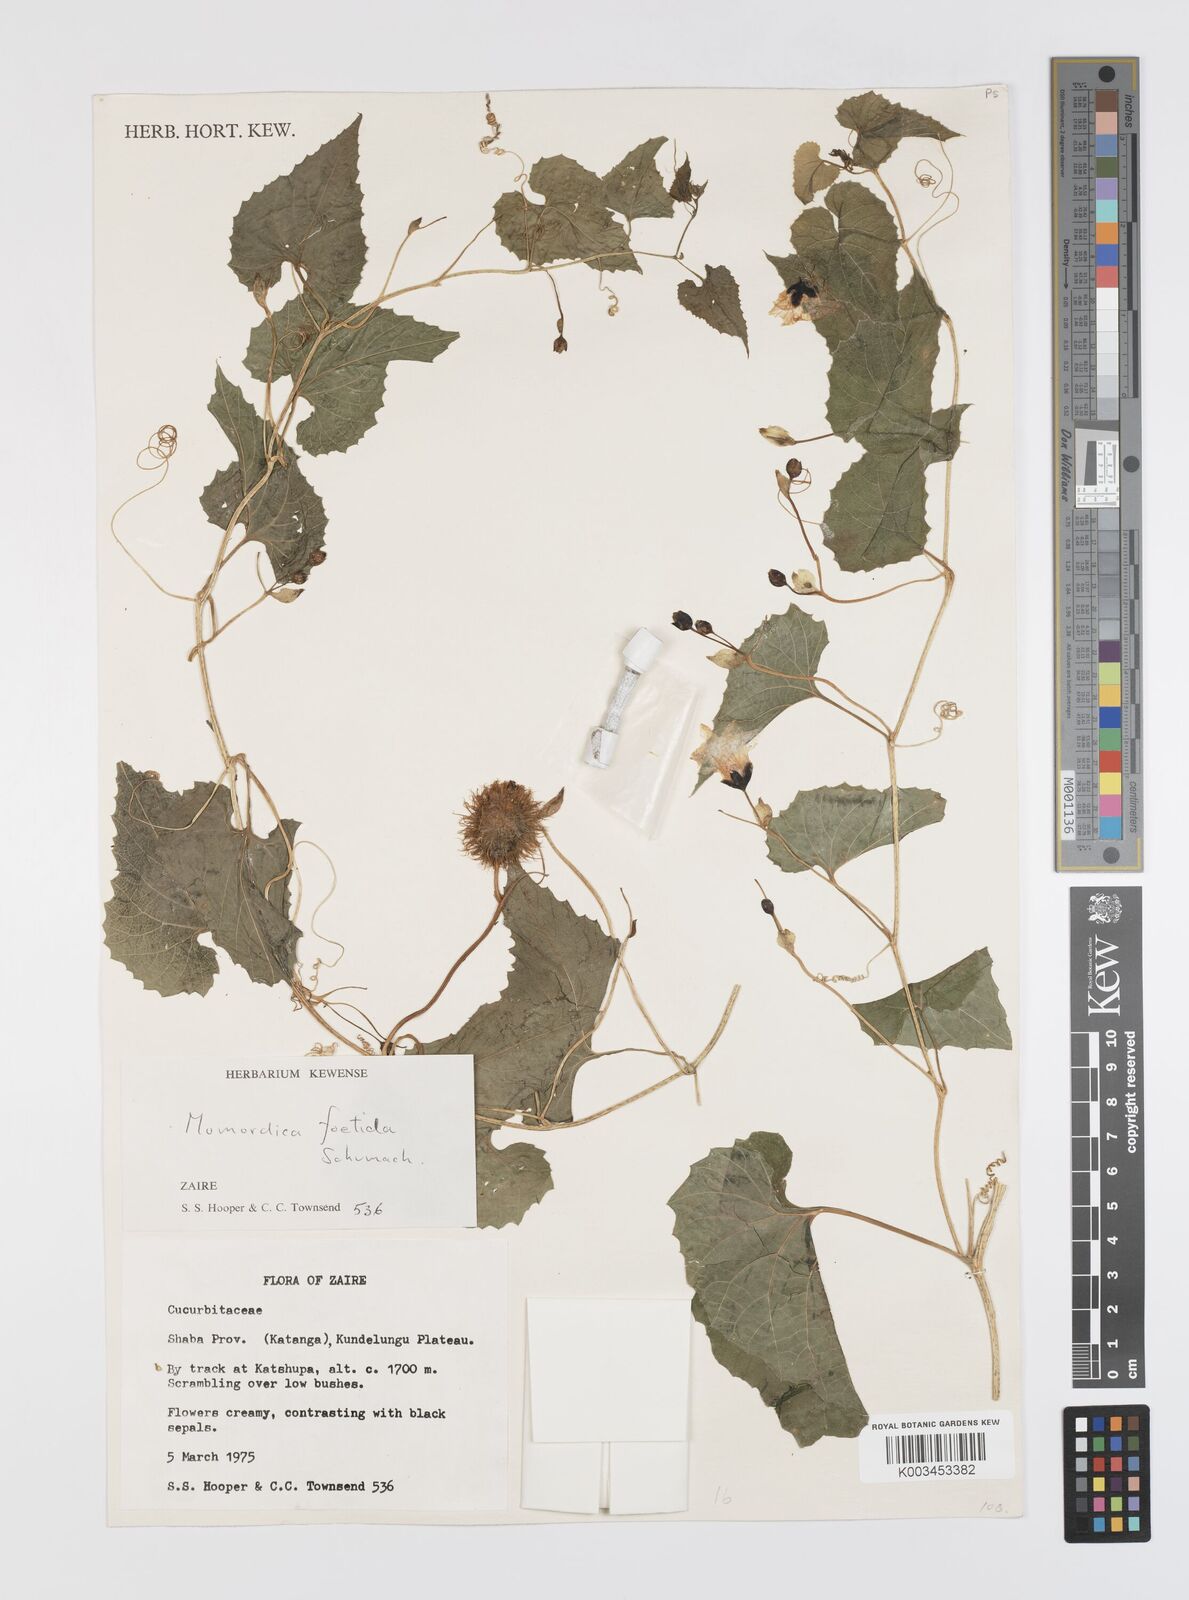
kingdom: Plantae
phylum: Tracheophyta
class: Magnoliopsida
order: Cucurbitales
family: Cucurbitaceae
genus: Momordica
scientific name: Momordica foetida
